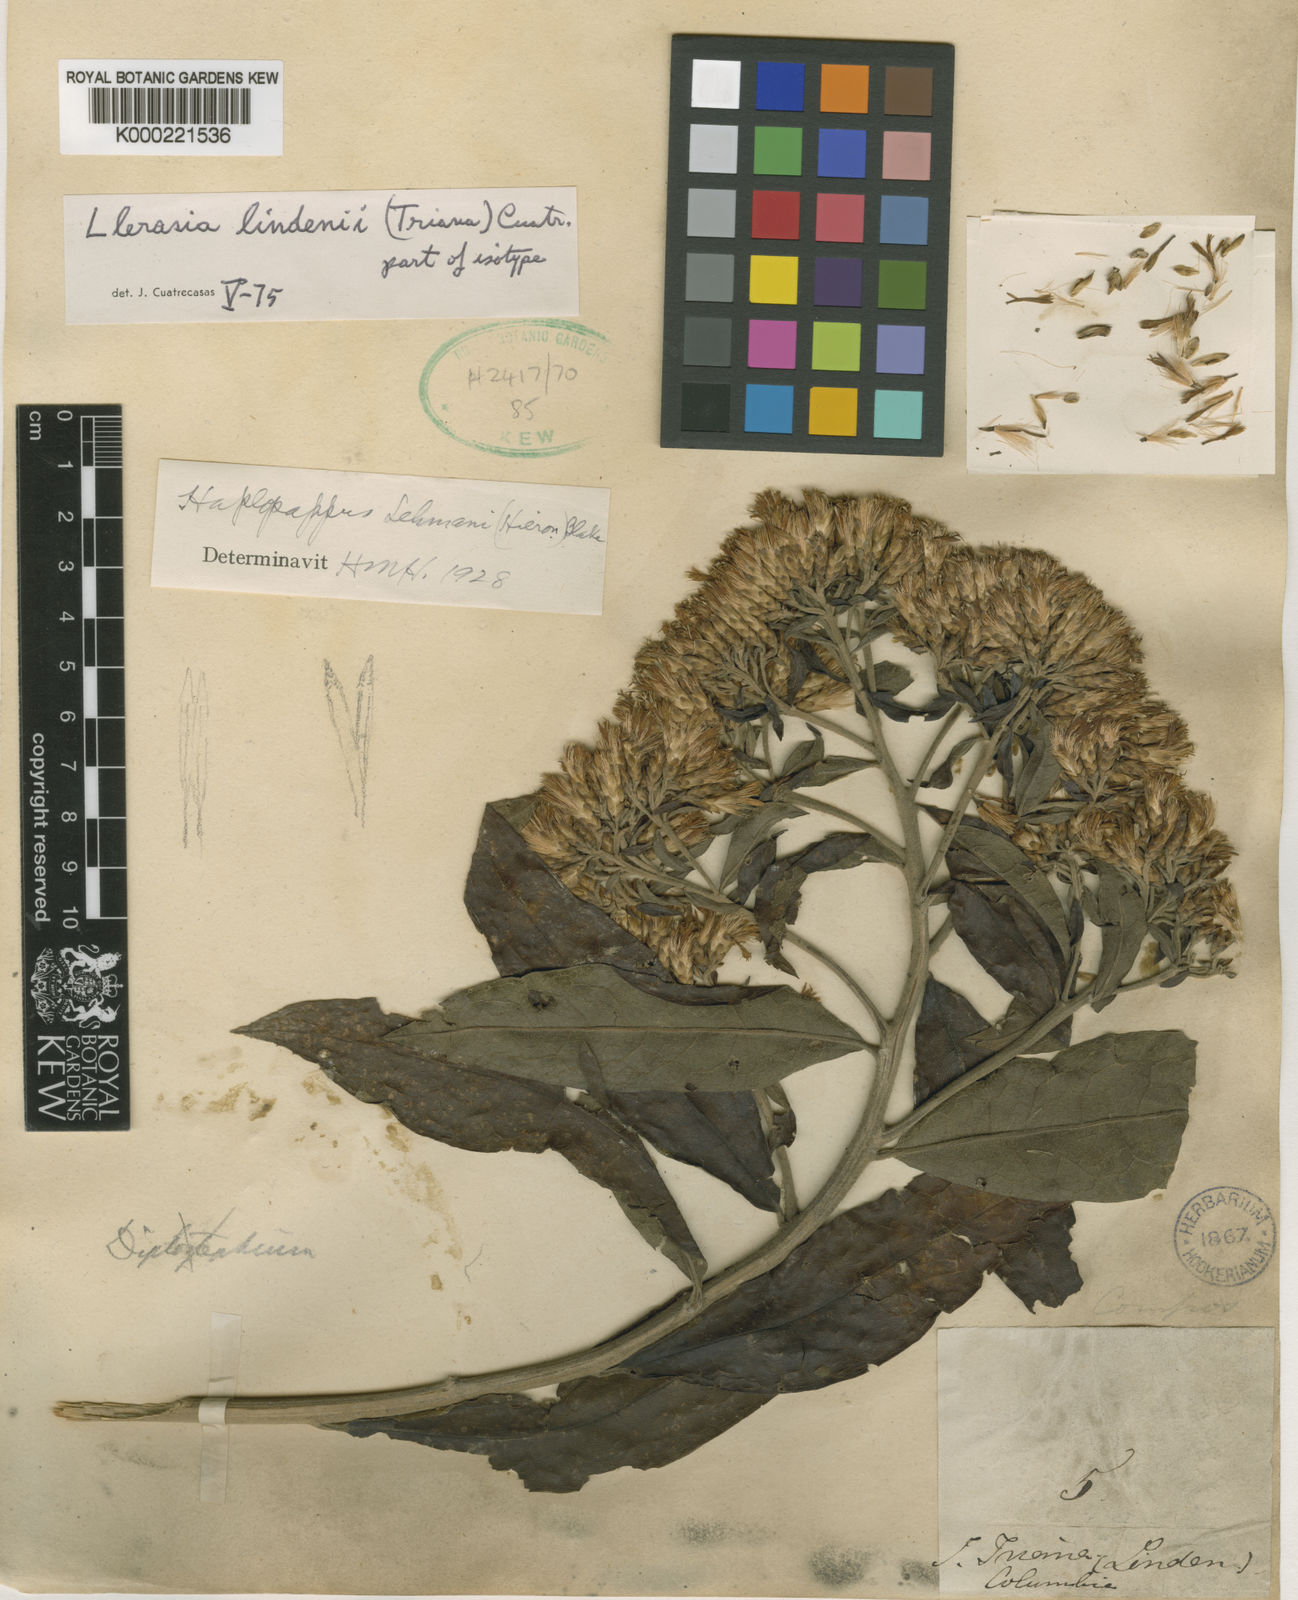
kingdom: Plantae
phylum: Tracheophyta
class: Magnoliopsida
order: Asterales
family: Asteraceae
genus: Llerasia
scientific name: Llerasia lindenii
